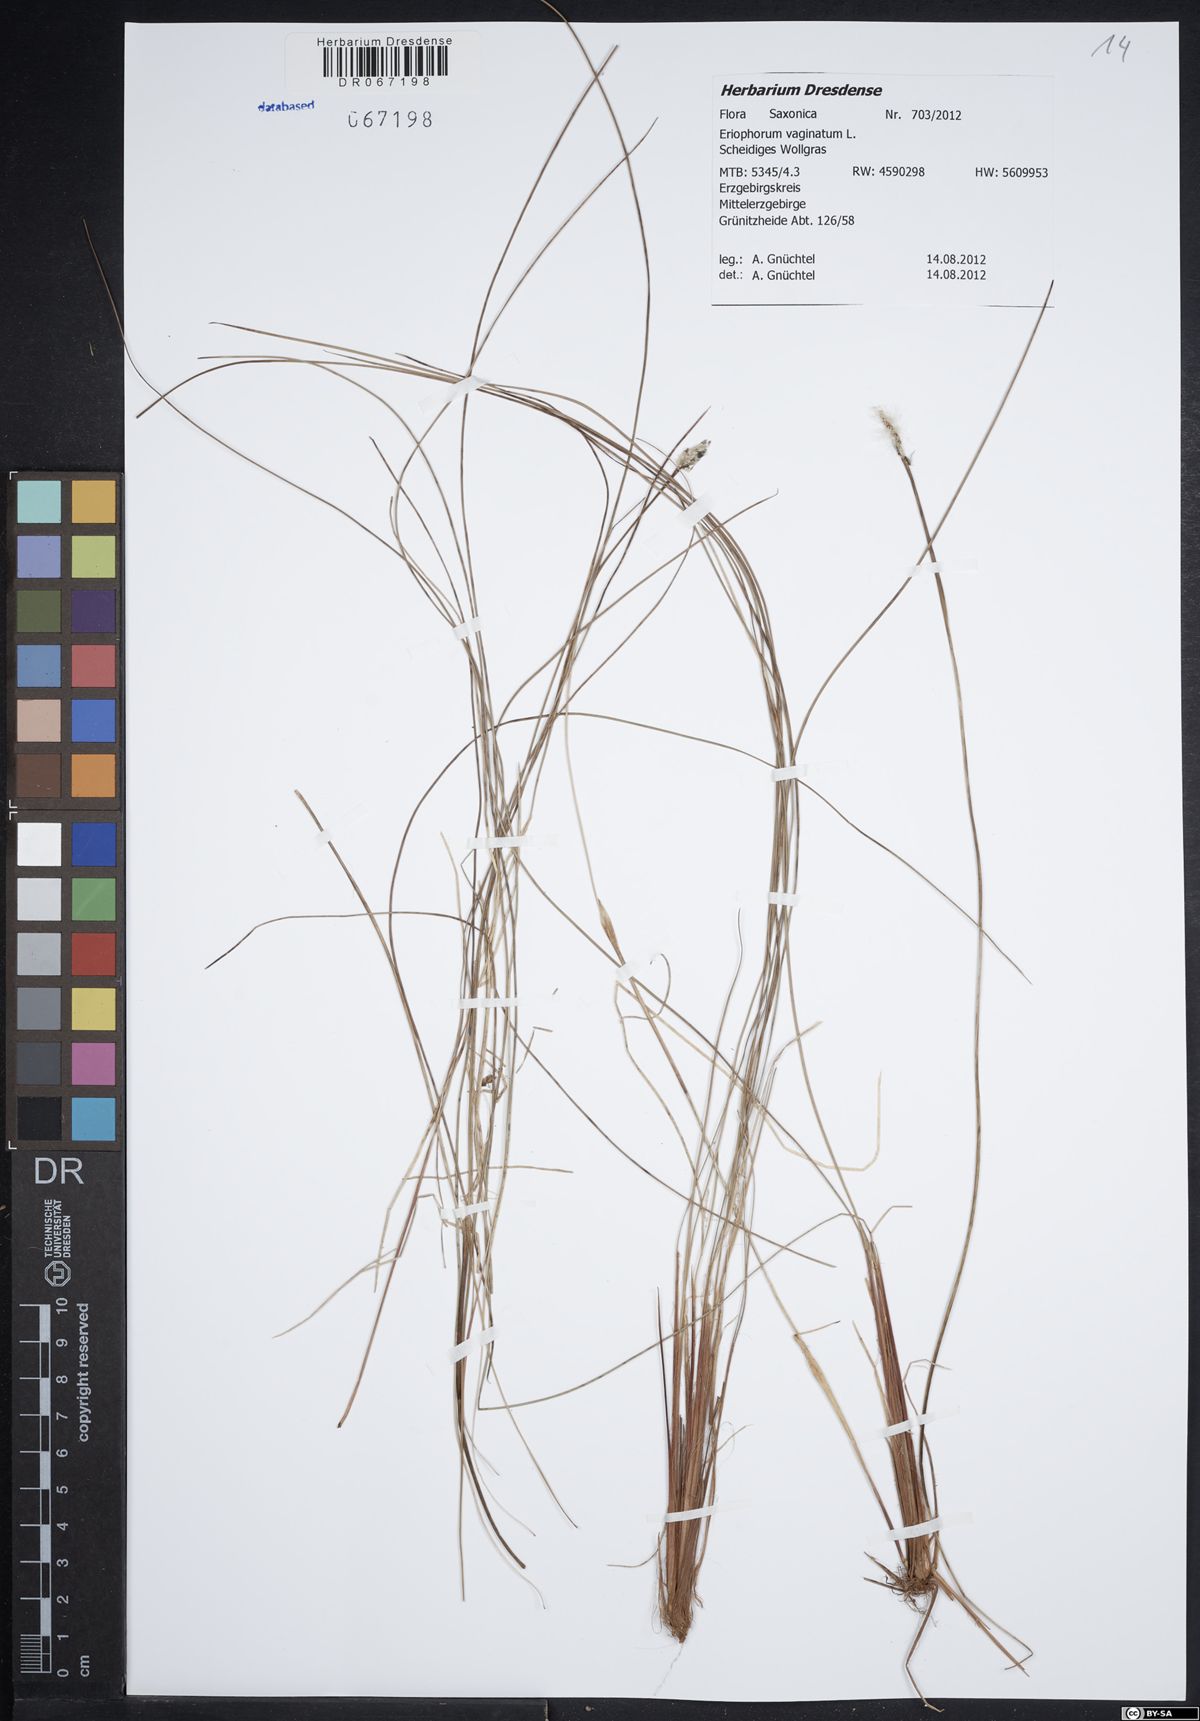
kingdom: Plantae
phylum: Tracheophyta
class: Liliopsida
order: Poales
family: Cyperaceae
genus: Eriophorum
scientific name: Eriophorum vaginatum
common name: Hare's-tail cottongrass
